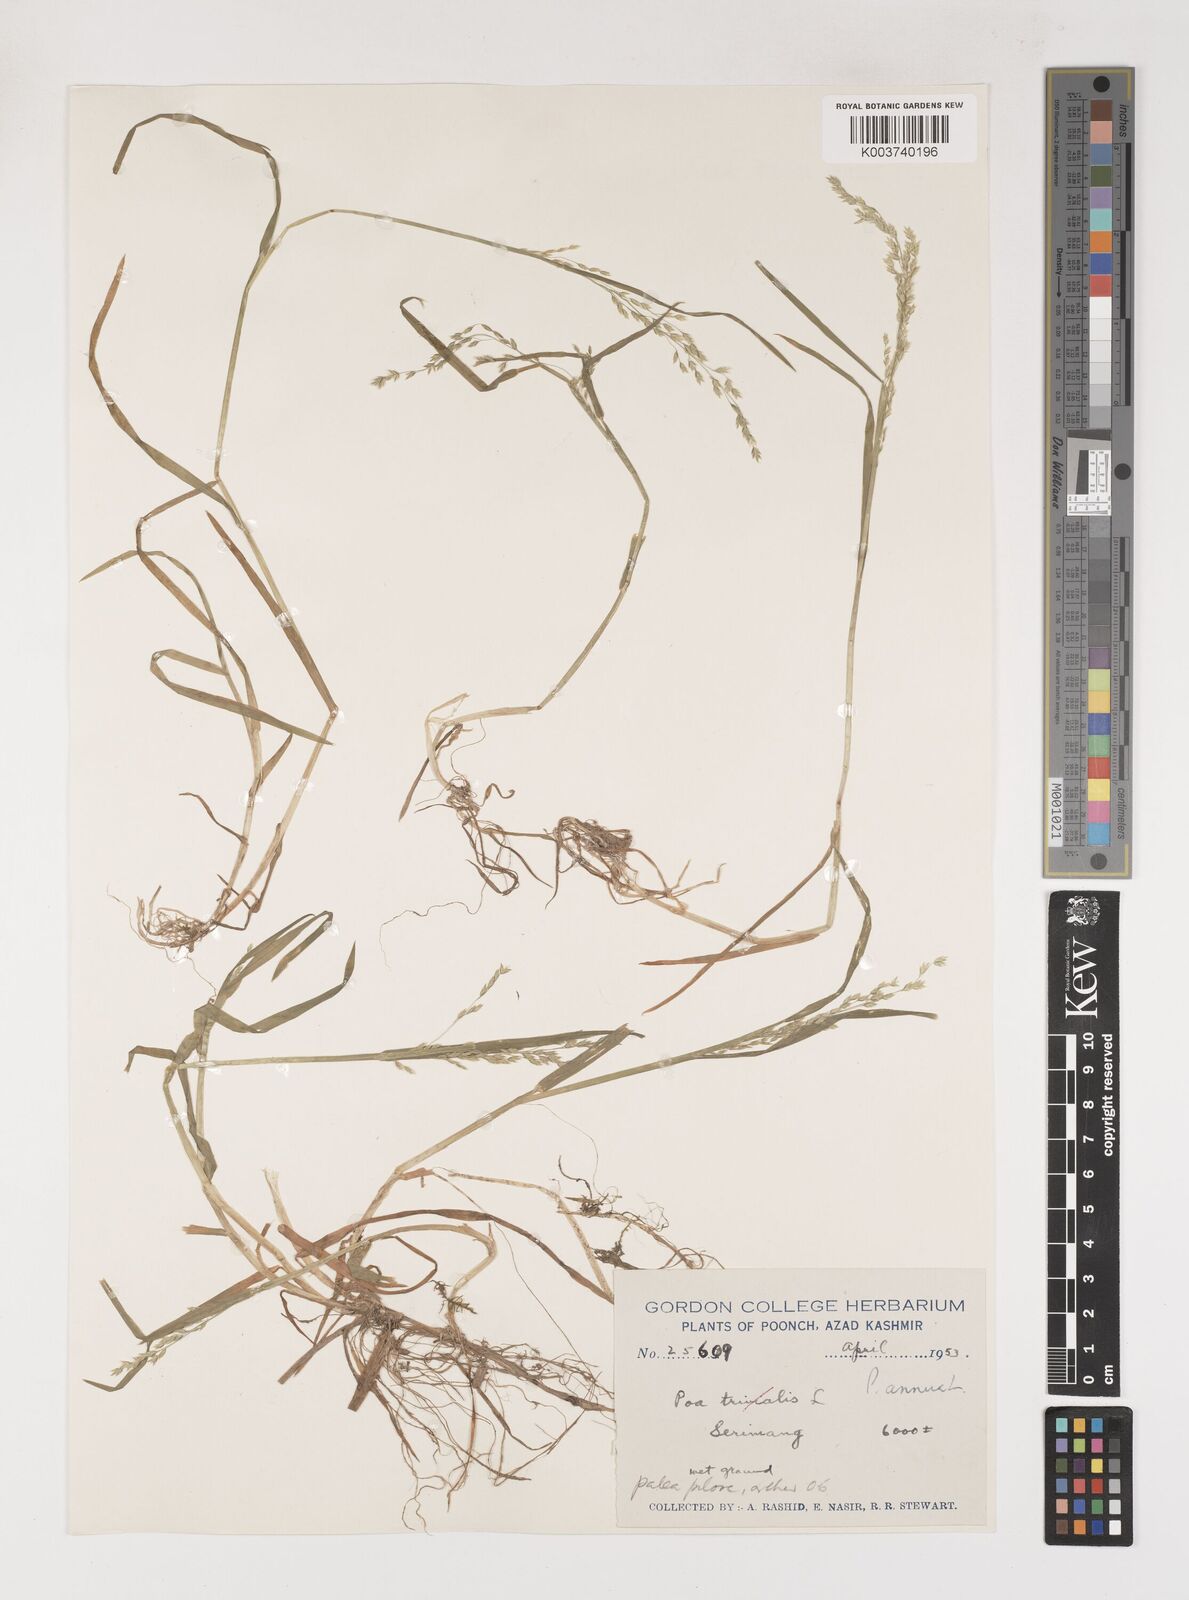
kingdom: Plantae
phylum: Tracheophyta
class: Liliopsida
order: Poales
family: Poaceae
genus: Poa
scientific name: Poa annua
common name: Annual bluegrass
